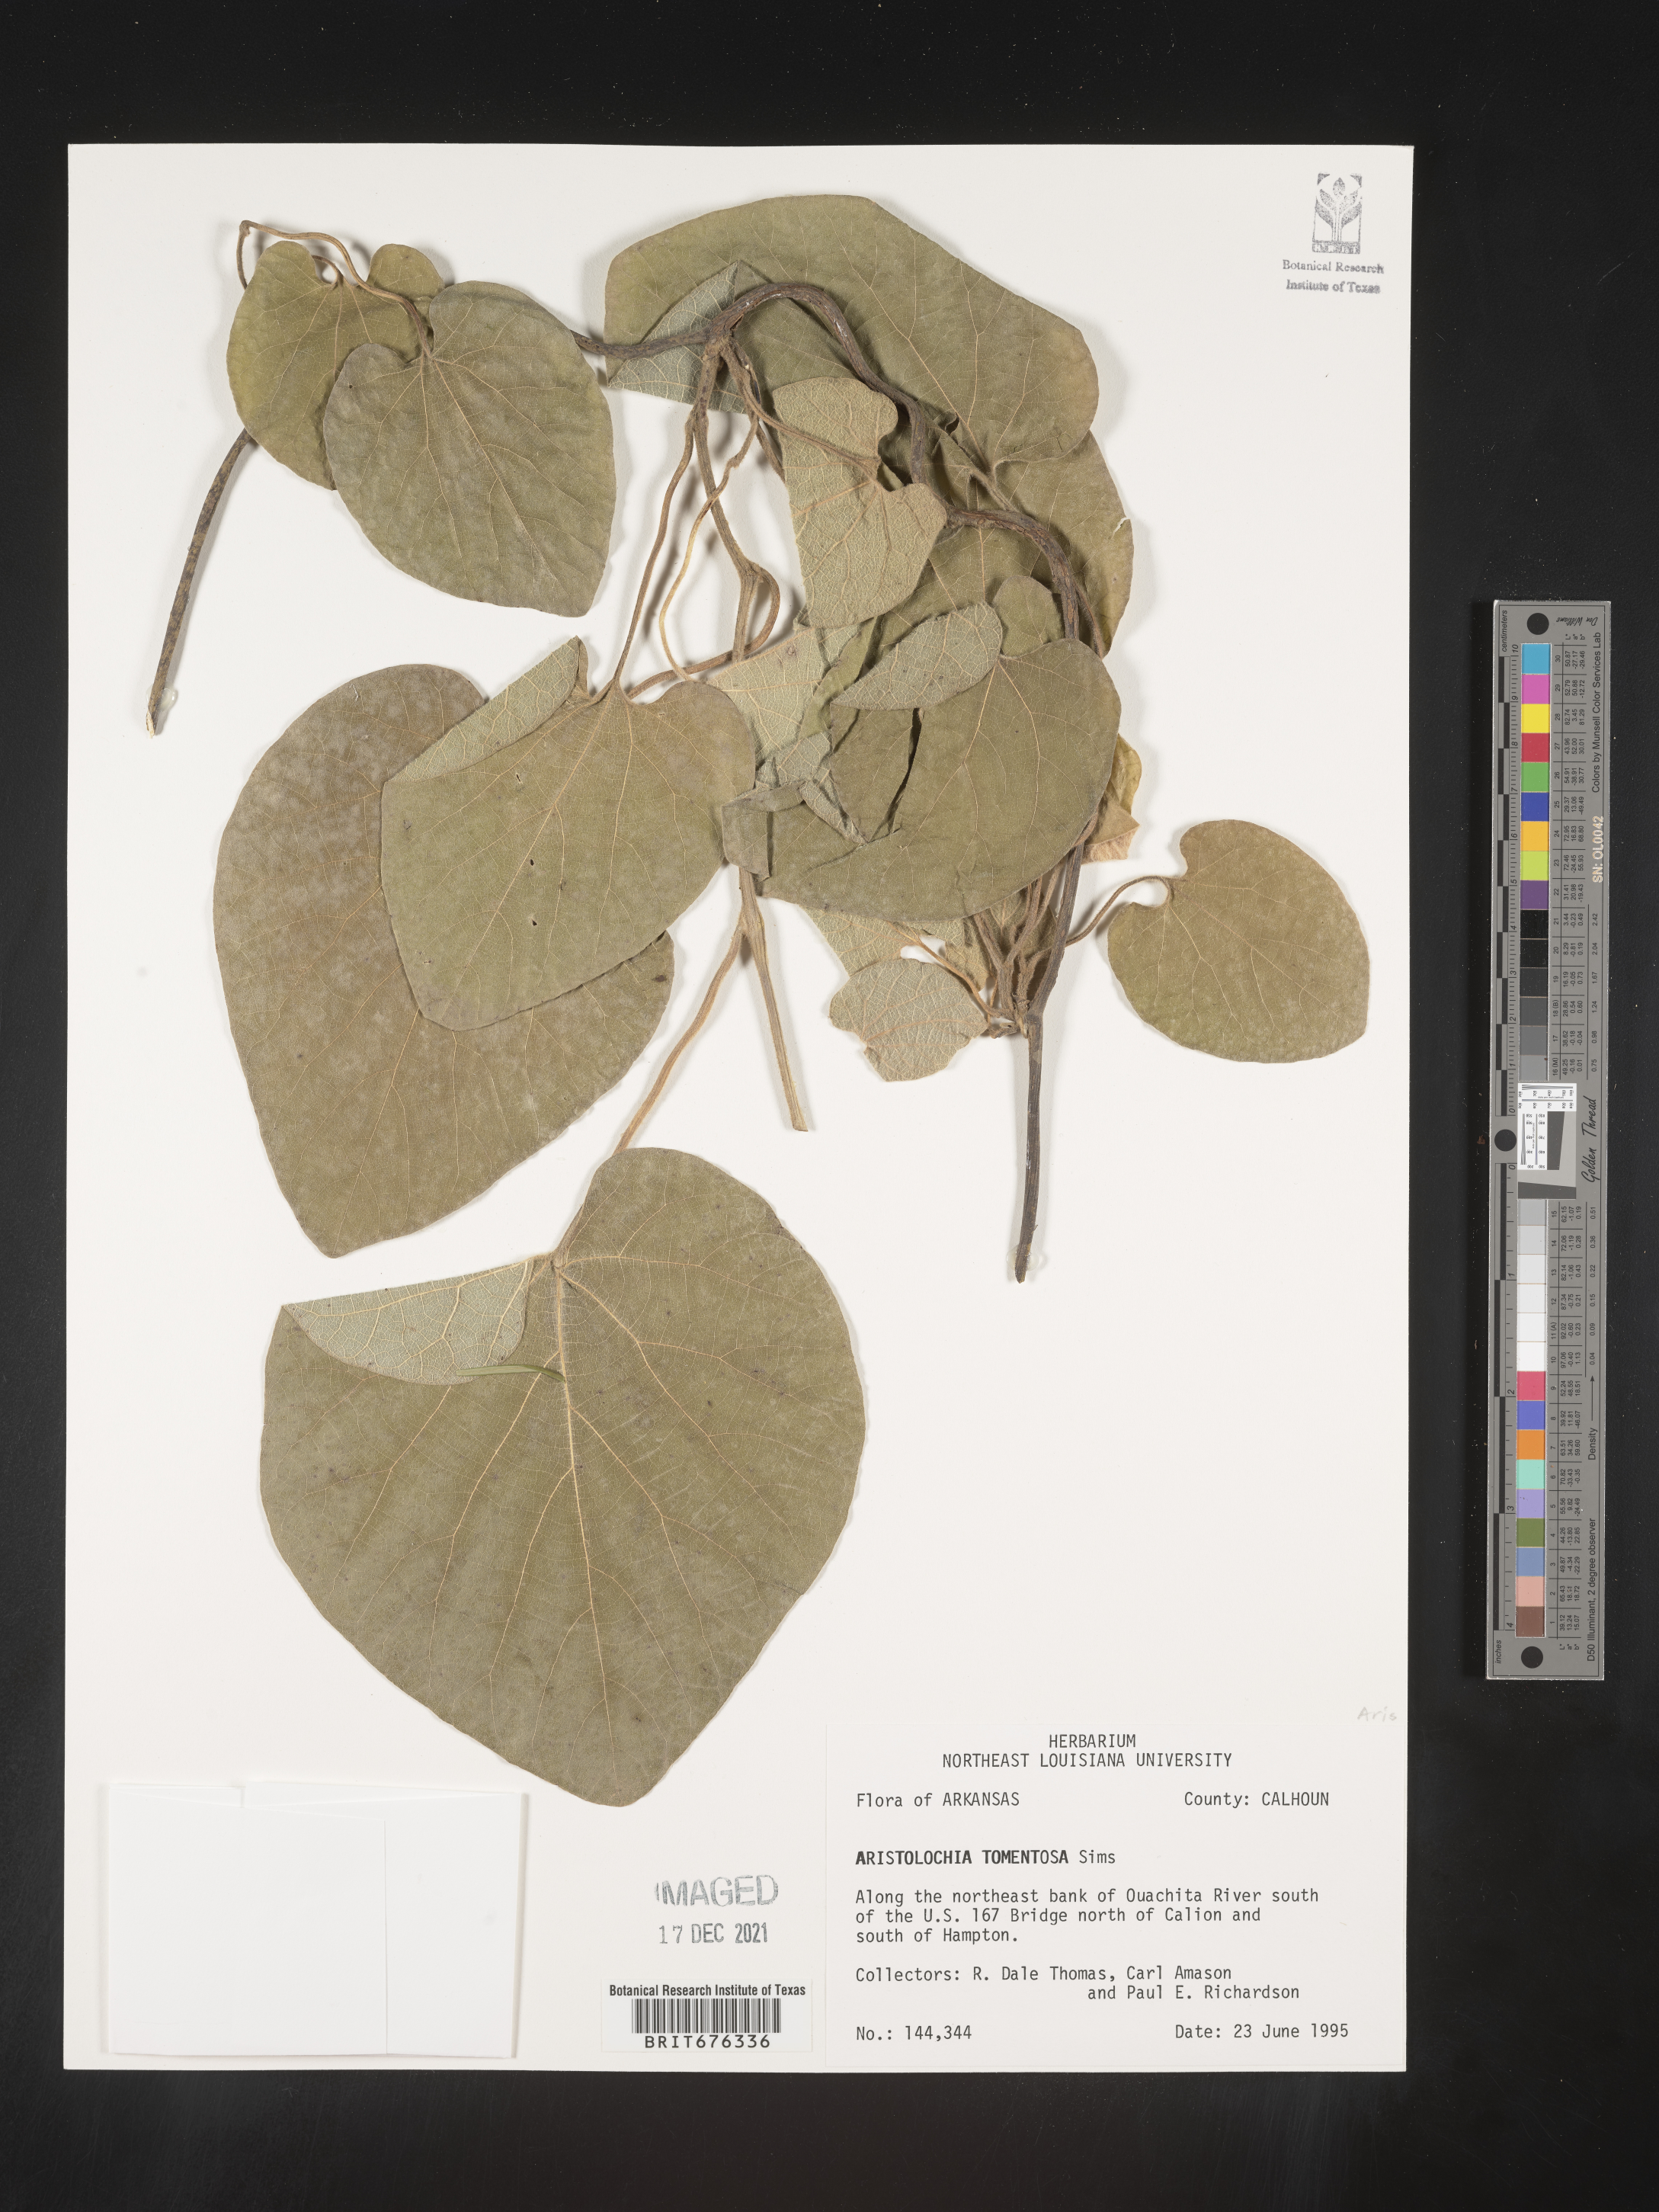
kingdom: Plantae
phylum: Tracheophyta
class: Magnoliopsida
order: Piperales
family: Aristolochiaceae
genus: Isotrema
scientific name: Isotrema tomentosum
